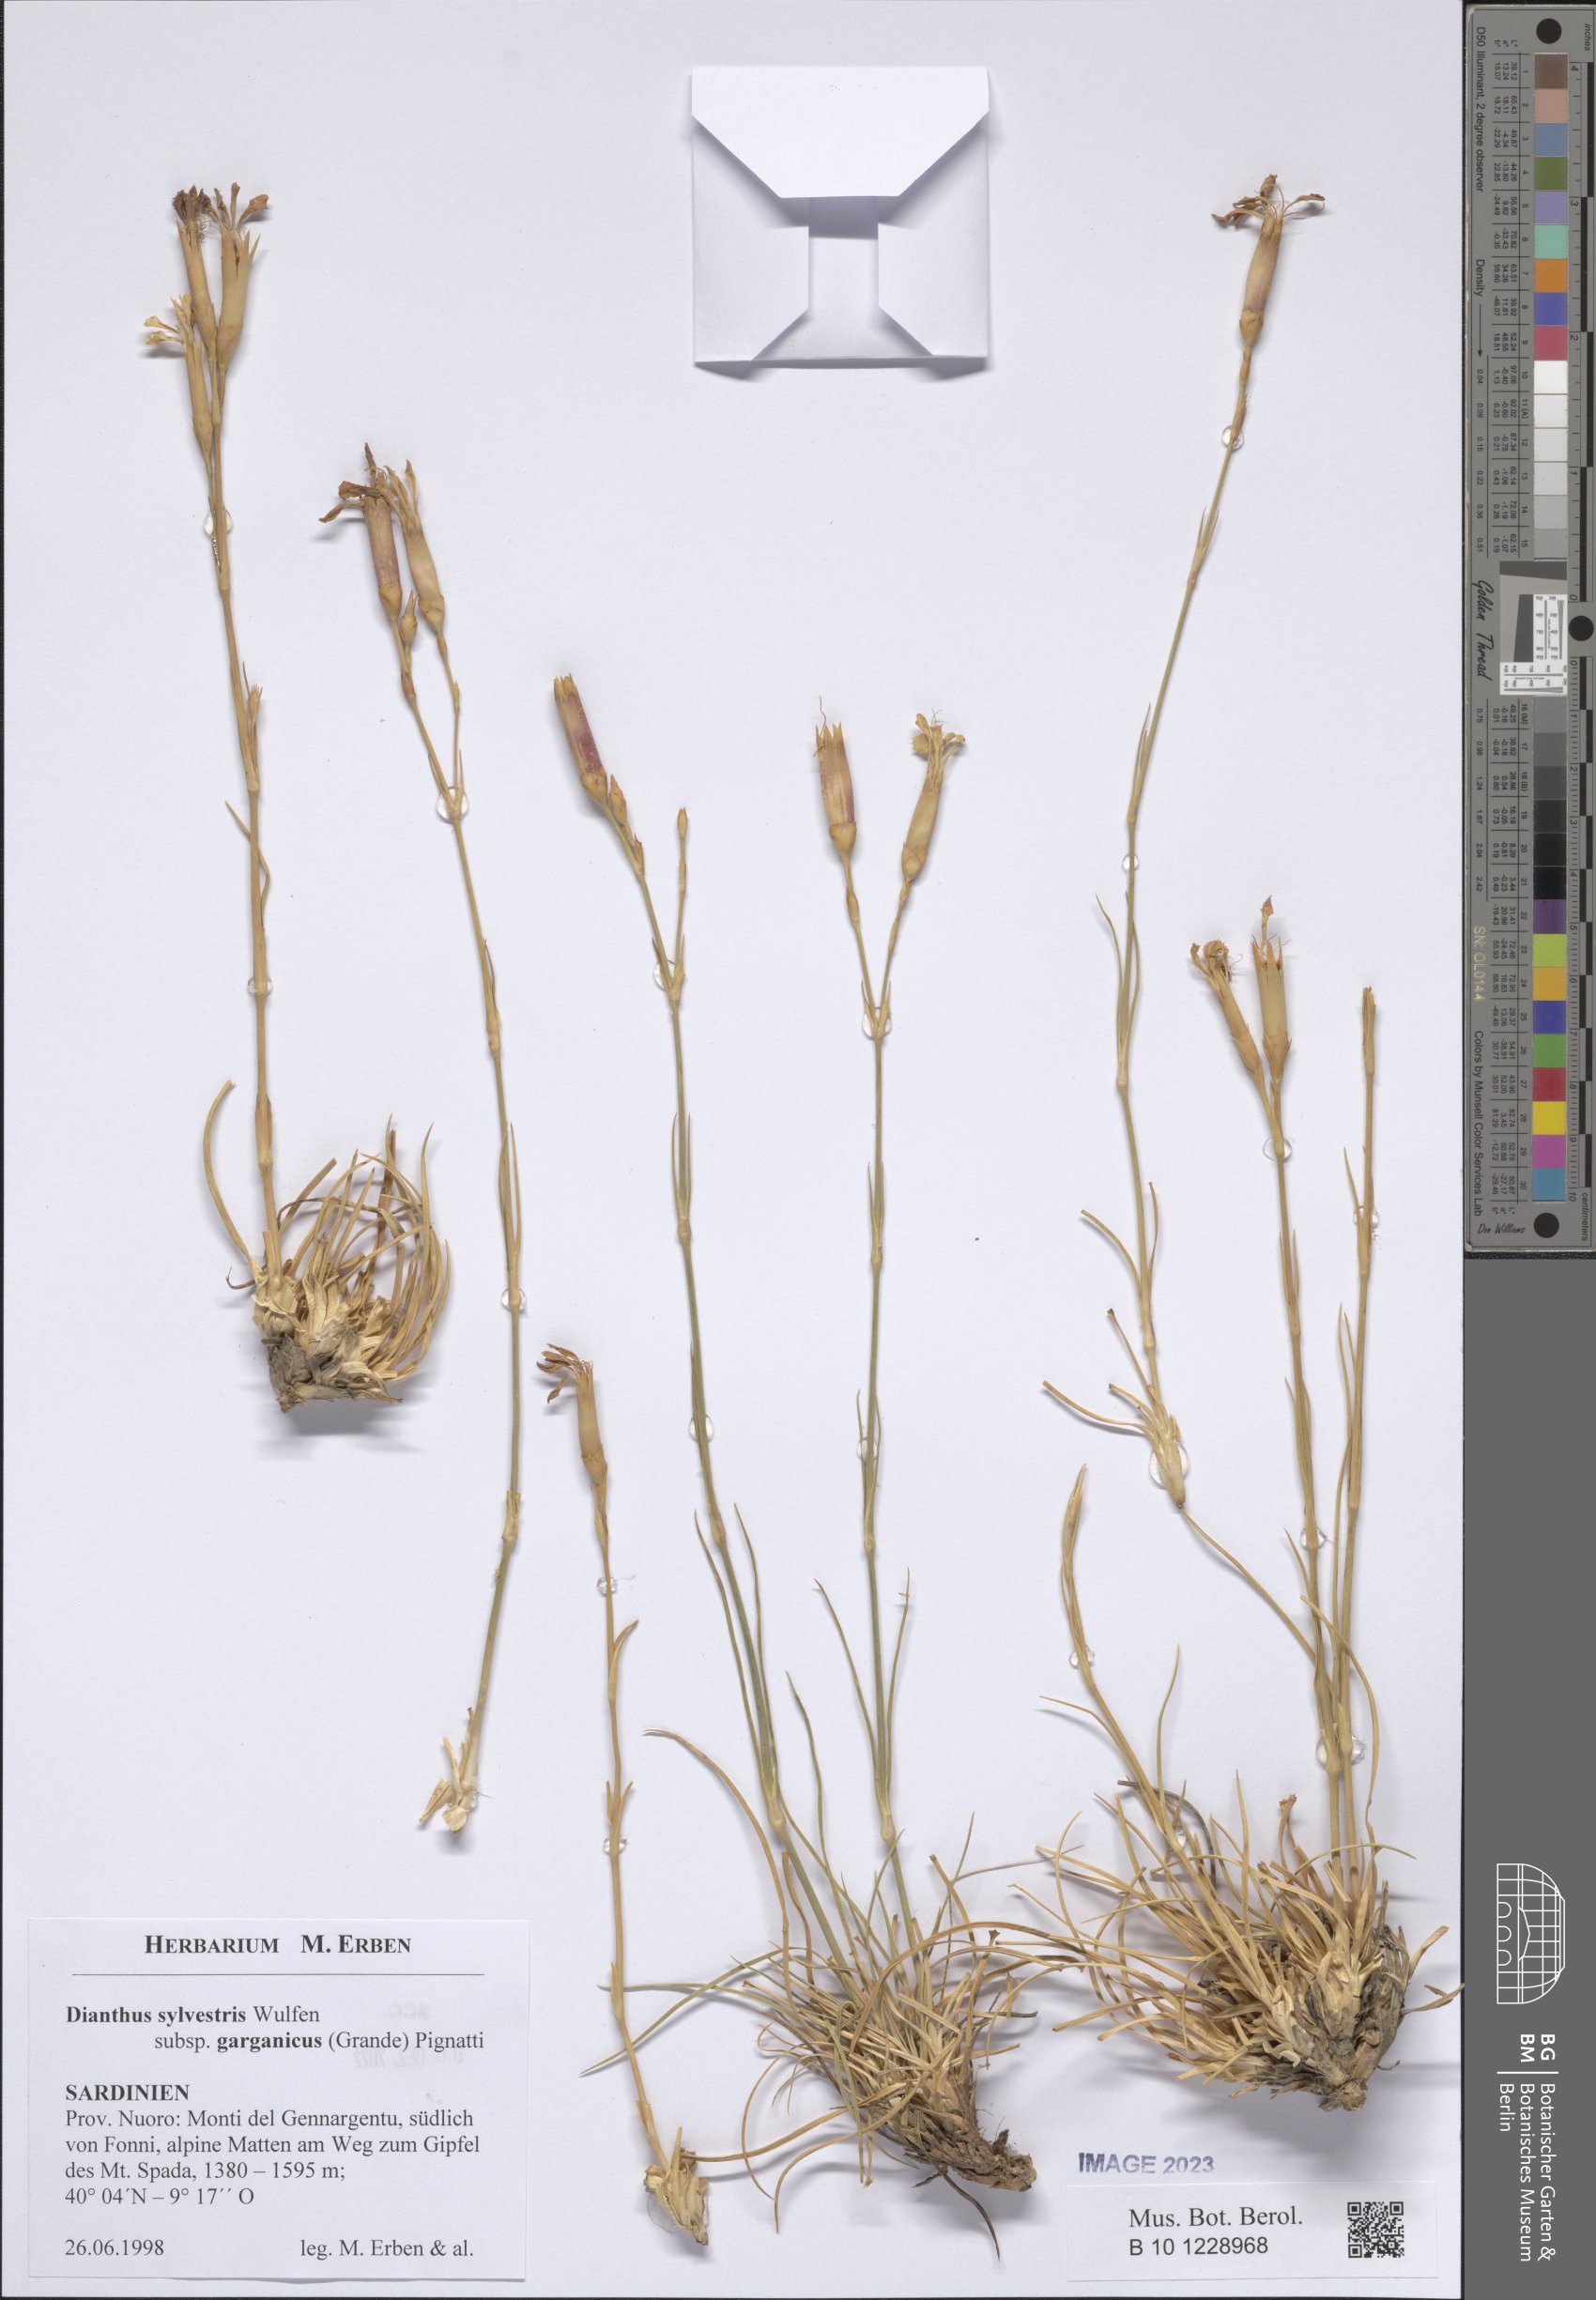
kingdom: Plantae
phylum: Tracheophyta
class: Magnoliopsida
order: Caryophyllales
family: Caryophyllaceae
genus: Dianthus
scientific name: Dianthus tarentinus
